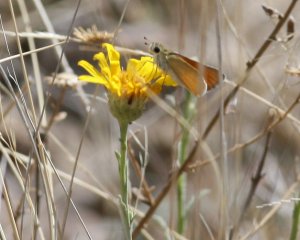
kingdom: Animalia
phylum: Arthropoda
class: Insecta
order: Lepidoptera
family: Hesperiidae
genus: Copaeodes
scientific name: Copaeodes aurantiaca
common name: Orange Skipperling
